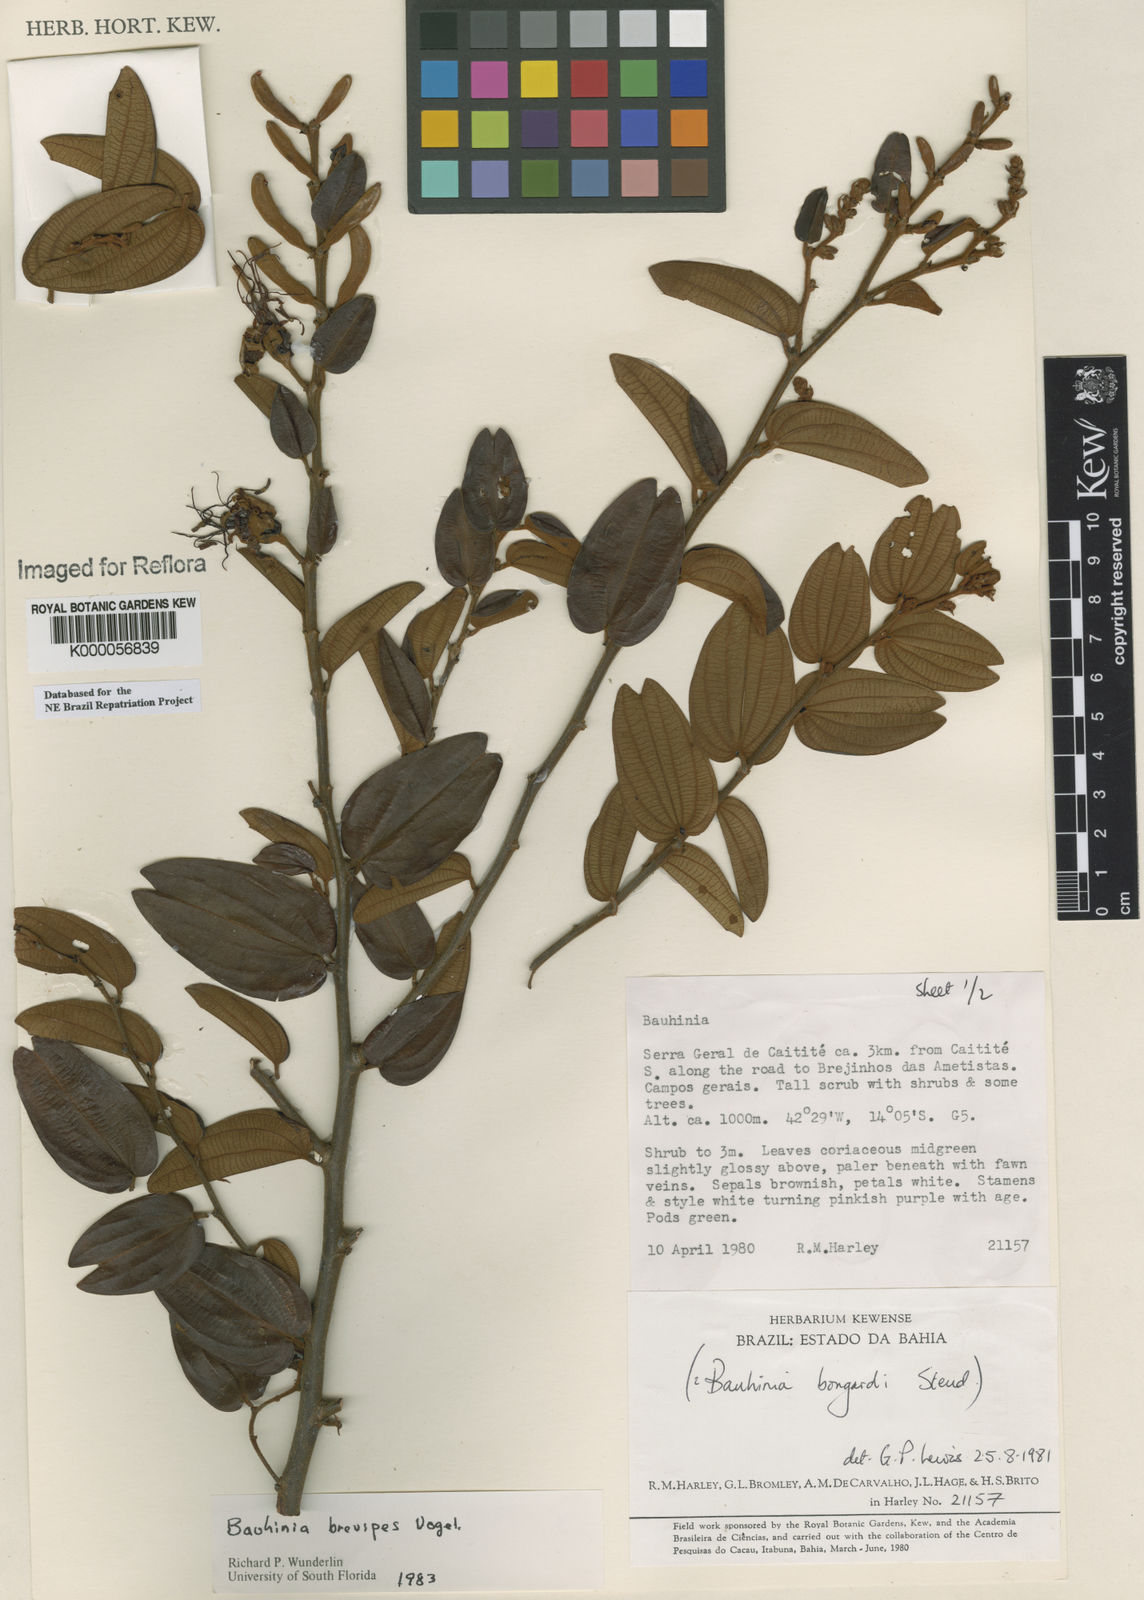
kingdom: Plantae
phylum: Tracheophyta
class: Magnoliopsida
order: Fabales
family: Fabaceae
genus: Bauhinia
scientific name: Bauhinia brevipes
